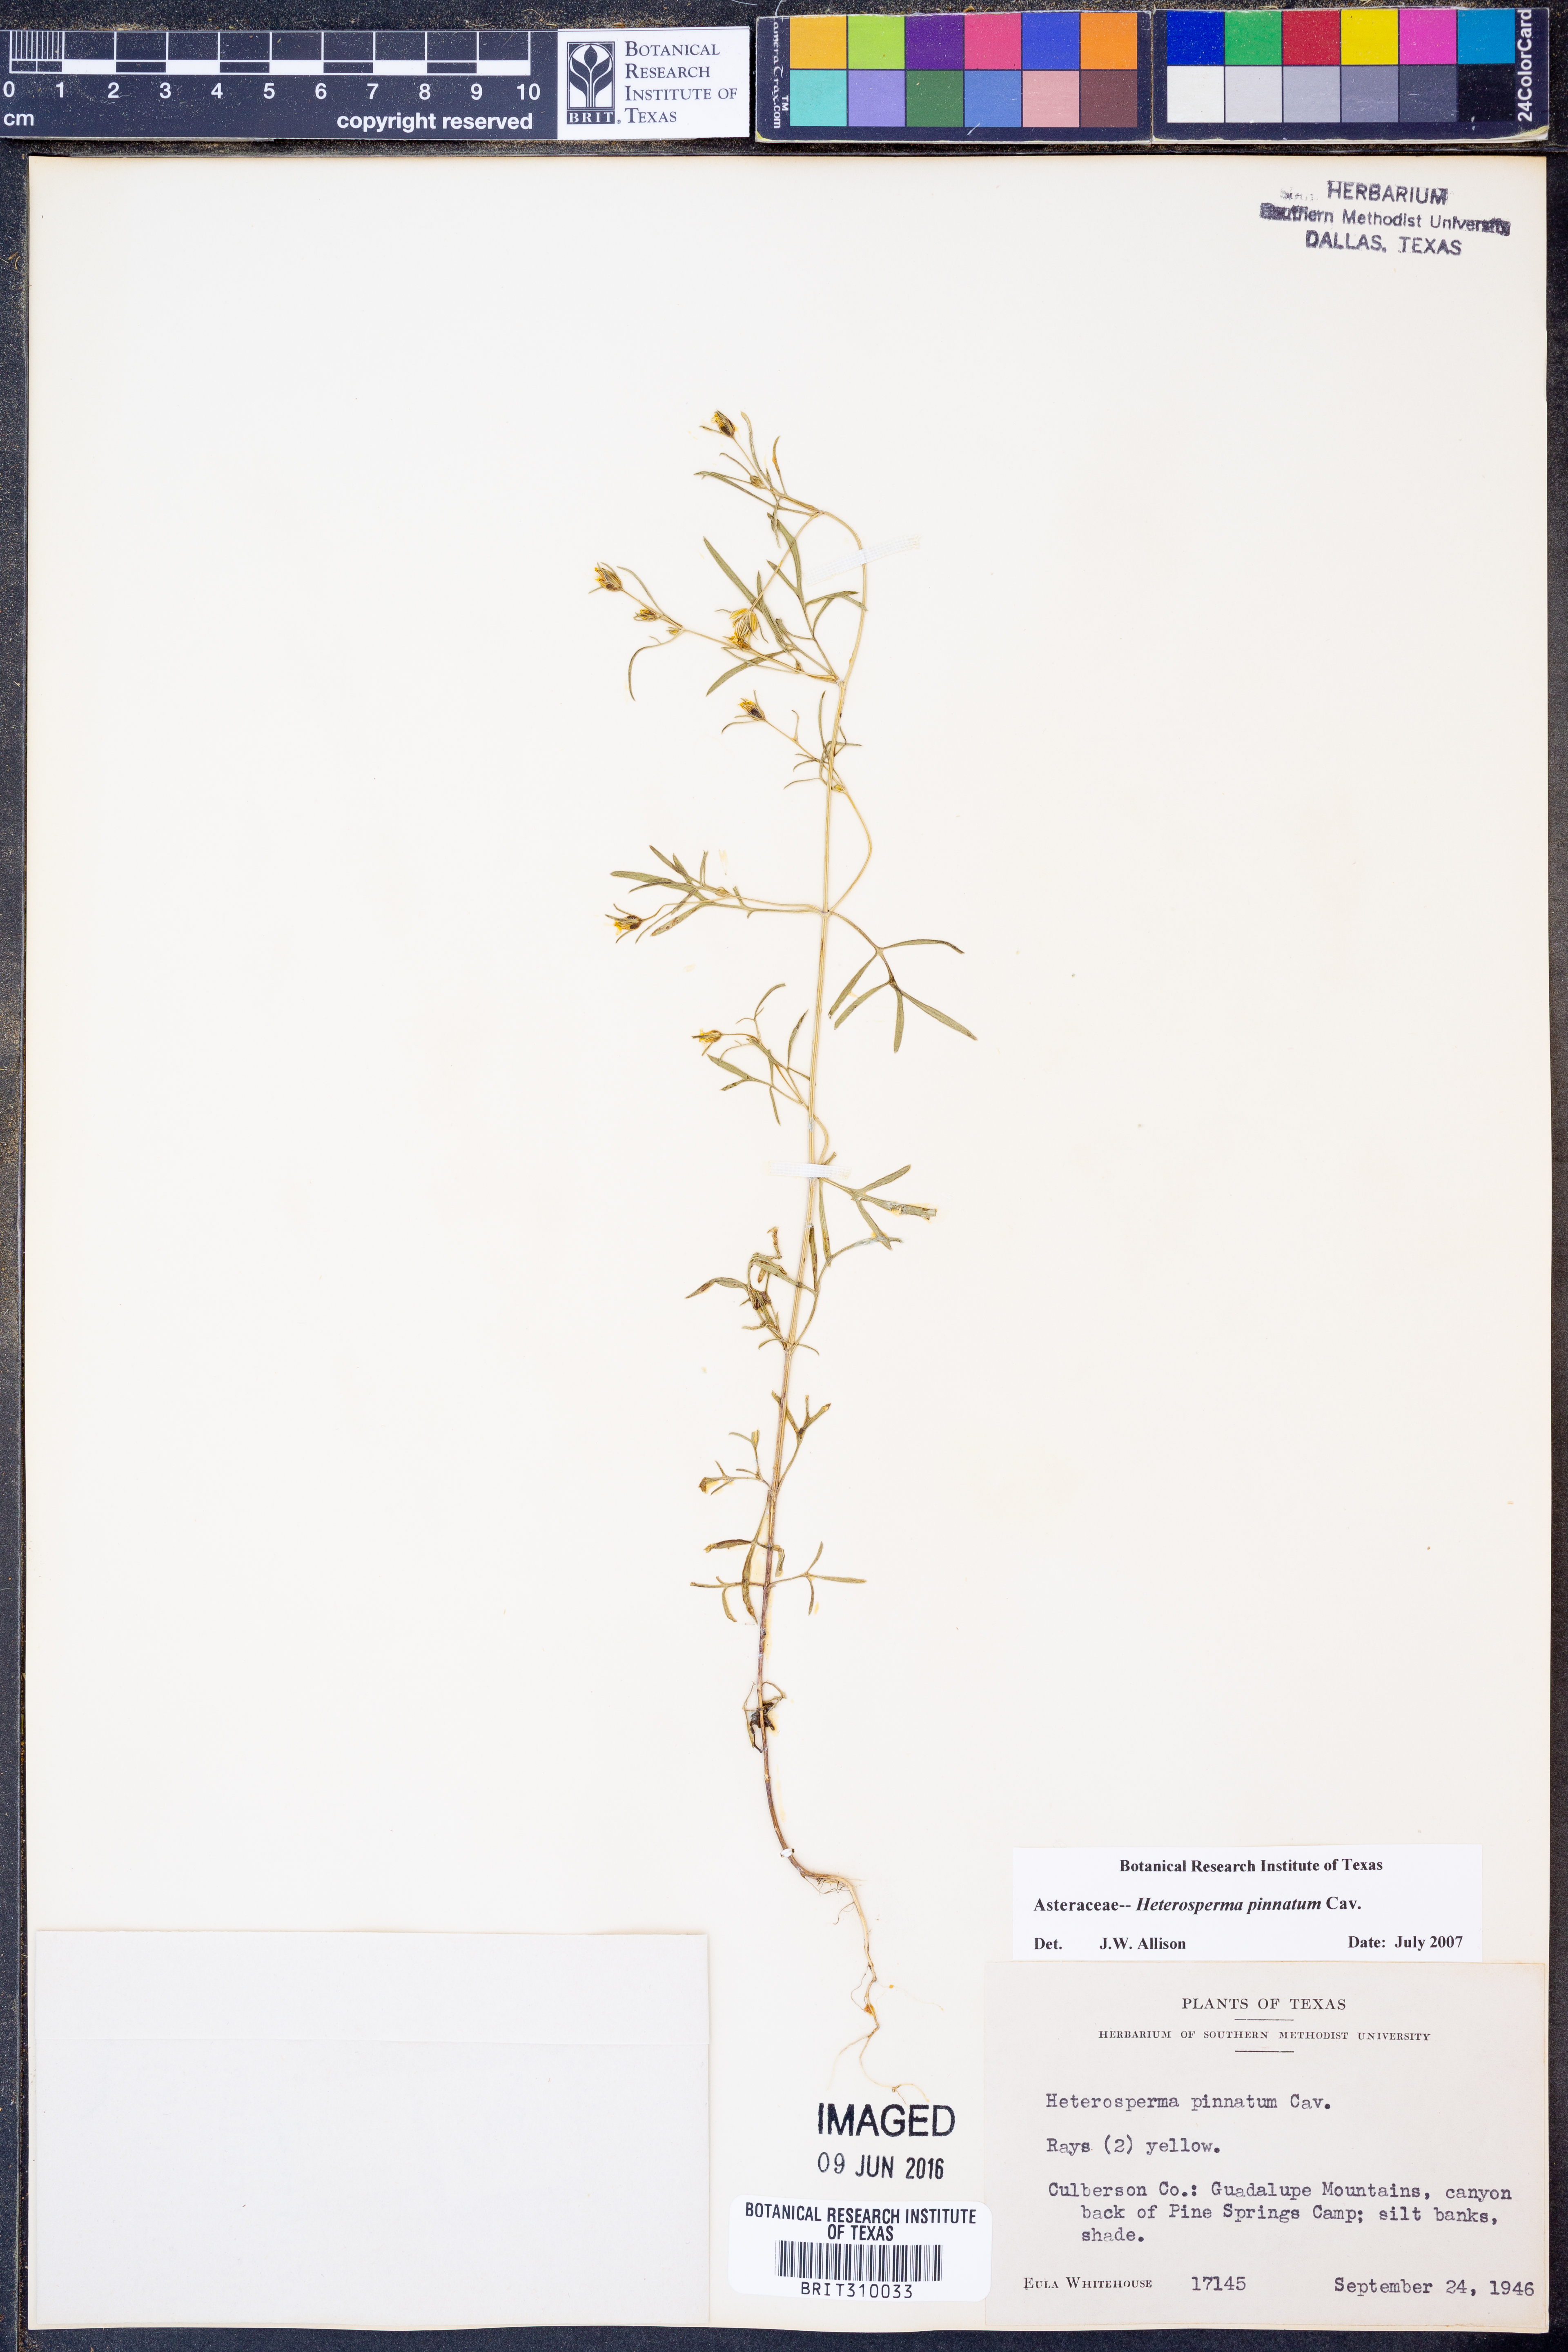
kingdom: Plantae
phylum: Tracheophyta
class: Magnoliopsida
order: Asterales
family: Asteraceae
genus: Heterosperma
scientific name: Heterosperma pinnatum
